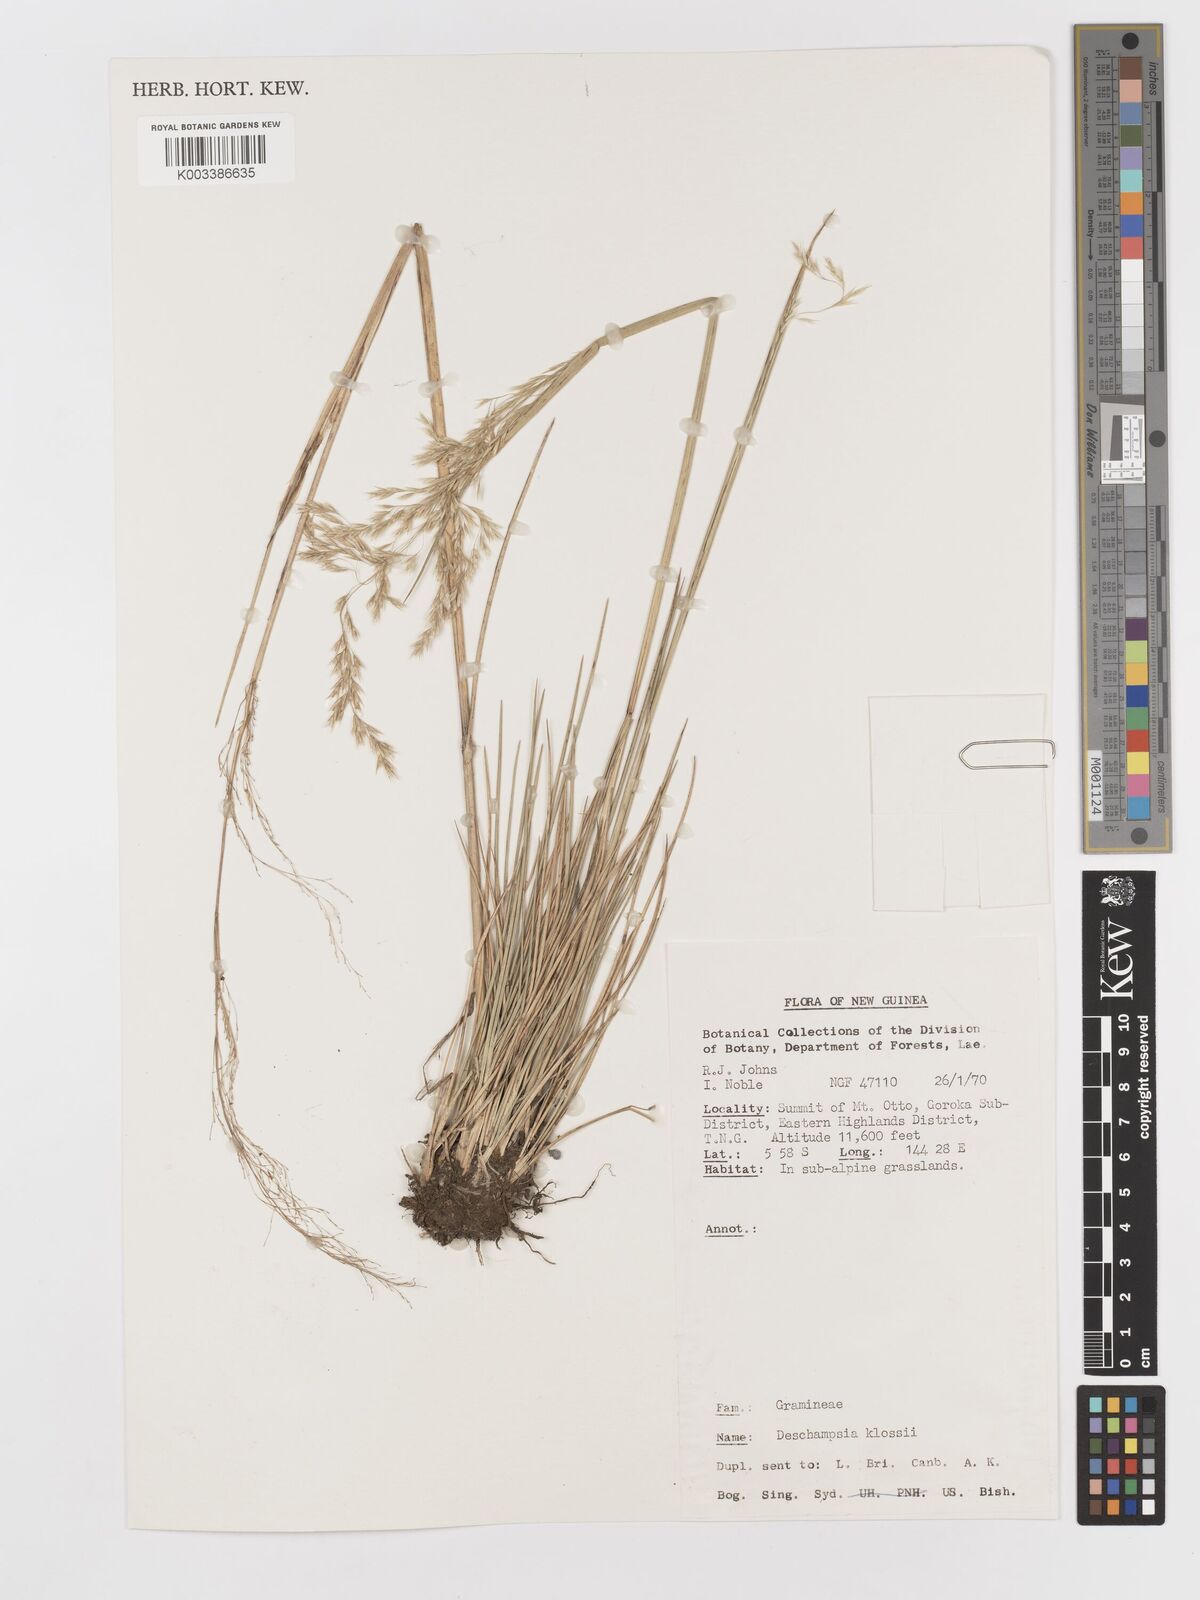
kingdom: Plantae
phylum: Tracheophyta
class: Liliopsida
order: Poales
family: Poaceae
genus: Deschampsia
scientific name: Deschampsia klossii
